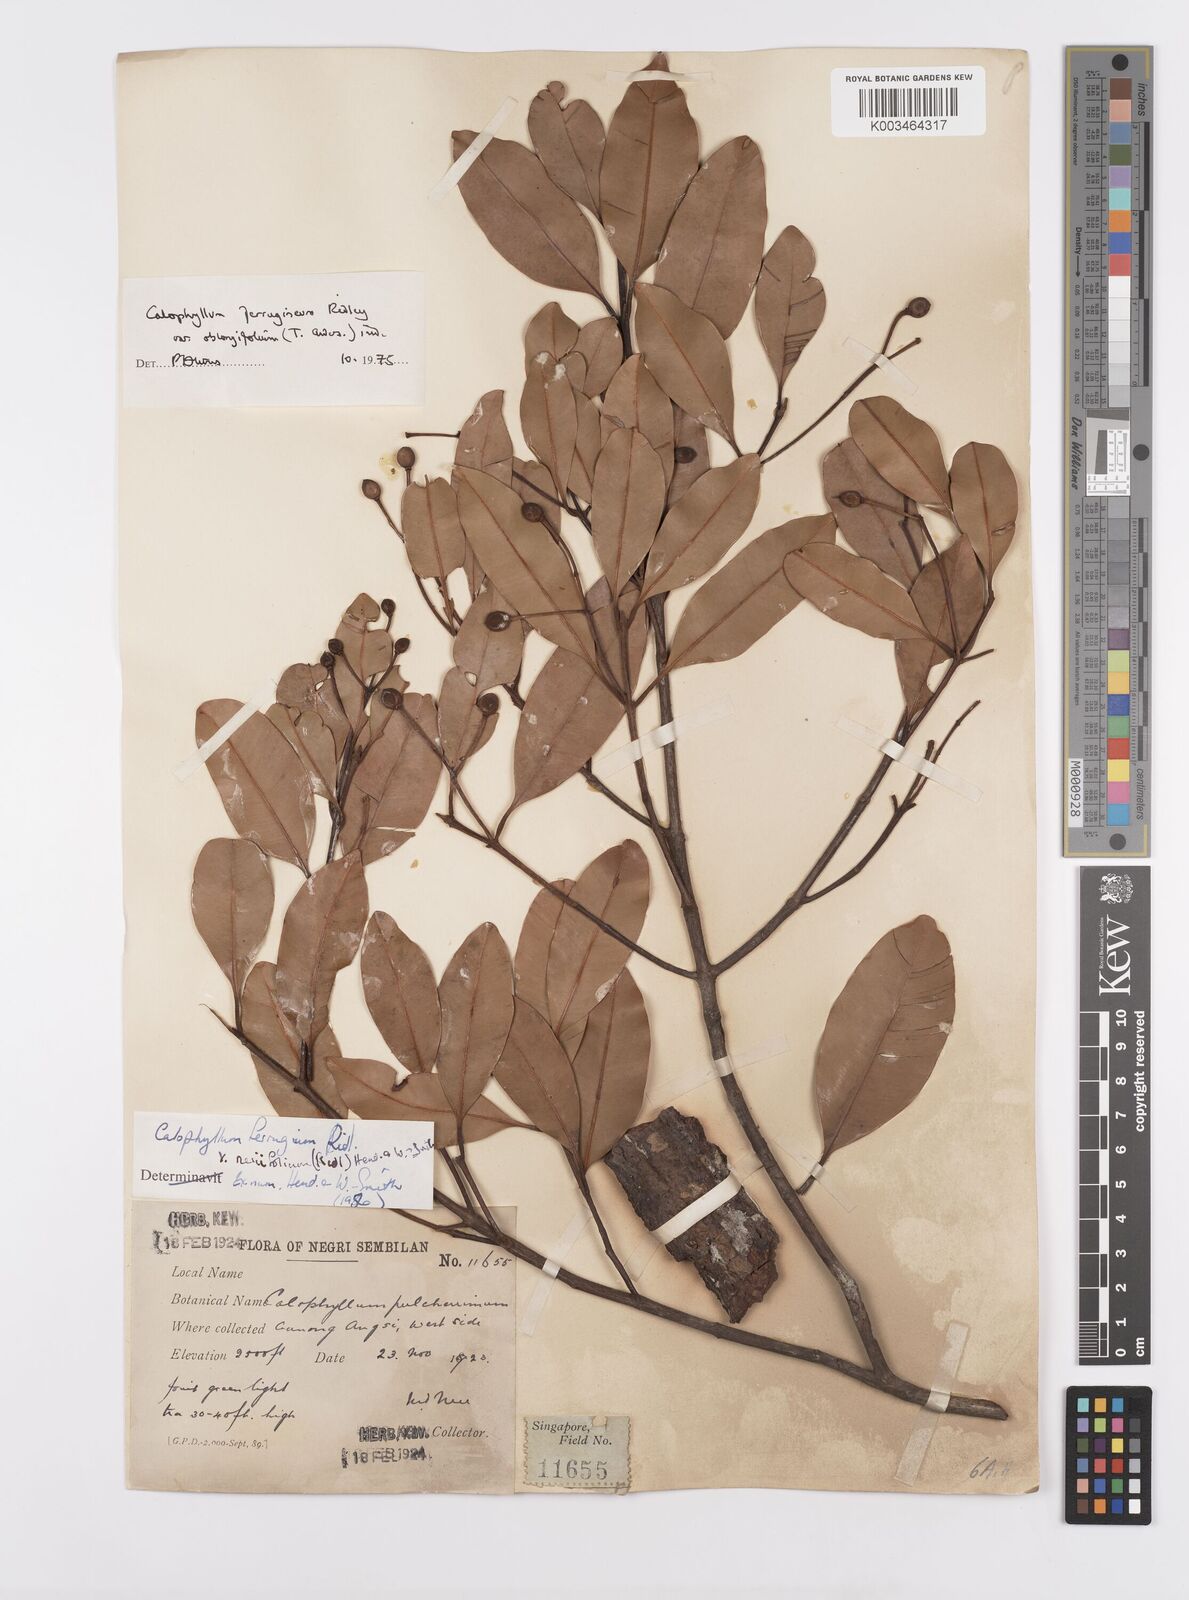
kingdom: Plantae
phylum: Tracheophyta
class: Magnoliopsida
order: Malpighiales
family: Calophyllaceae
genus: Calophyllum
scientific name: Calophyllum ferrugineum
